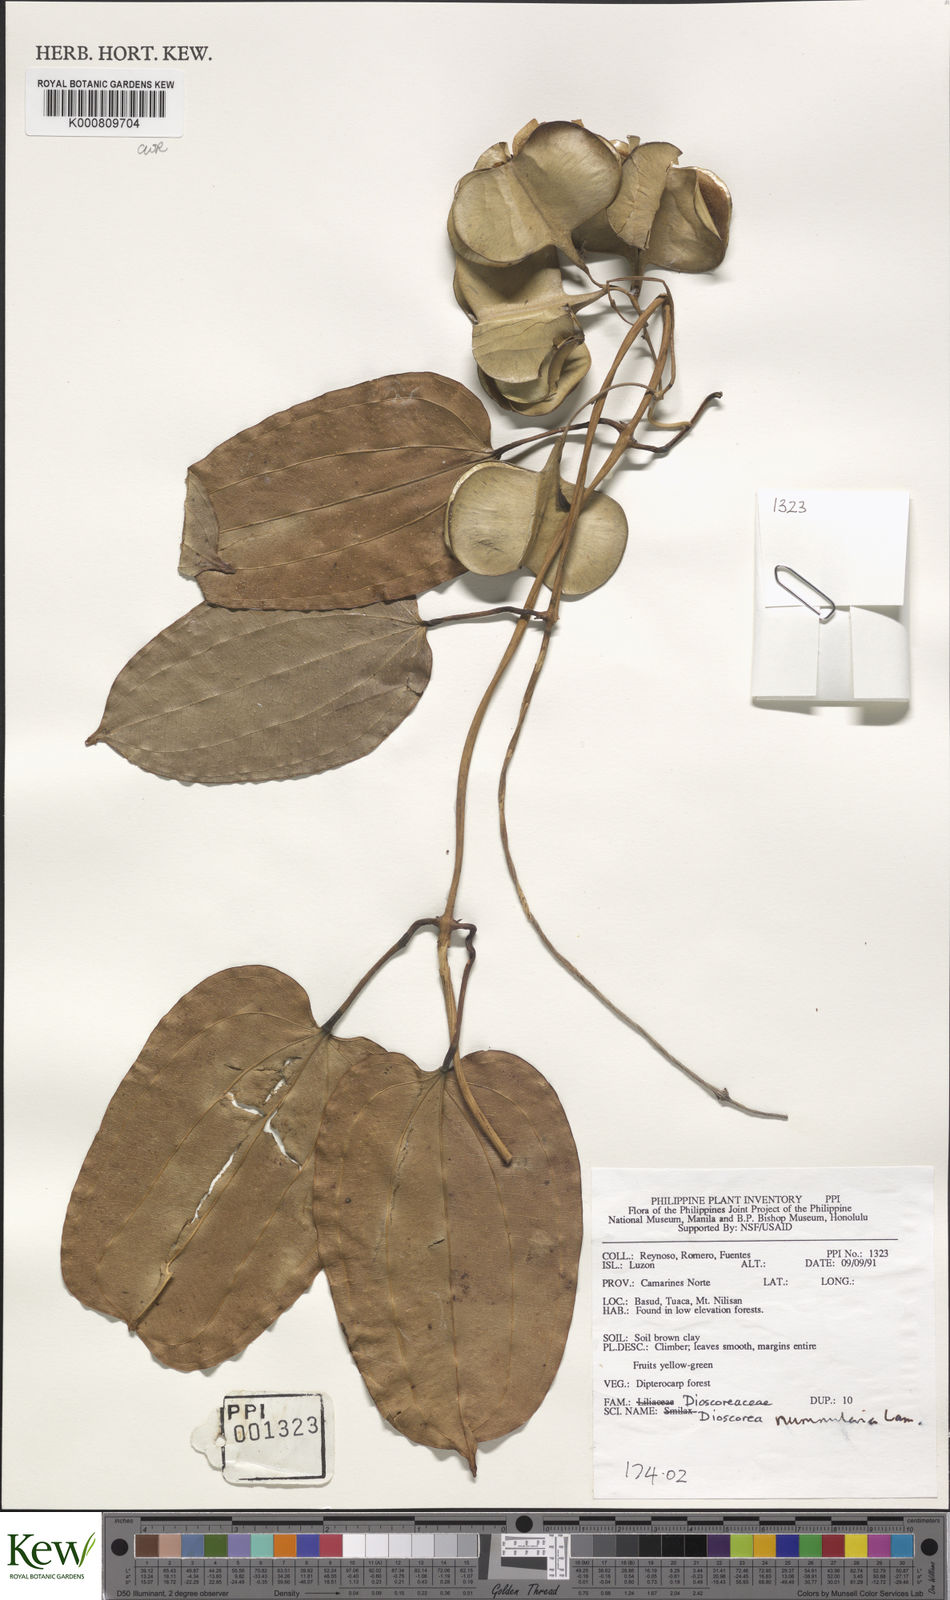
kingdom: Plantae
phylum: Tracheophyta
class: Liliopsida
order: Dioscoreales
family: Dioscoreaceae
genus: Dioscorea
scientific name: Dioscorea nummularia
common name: Pacific yam
